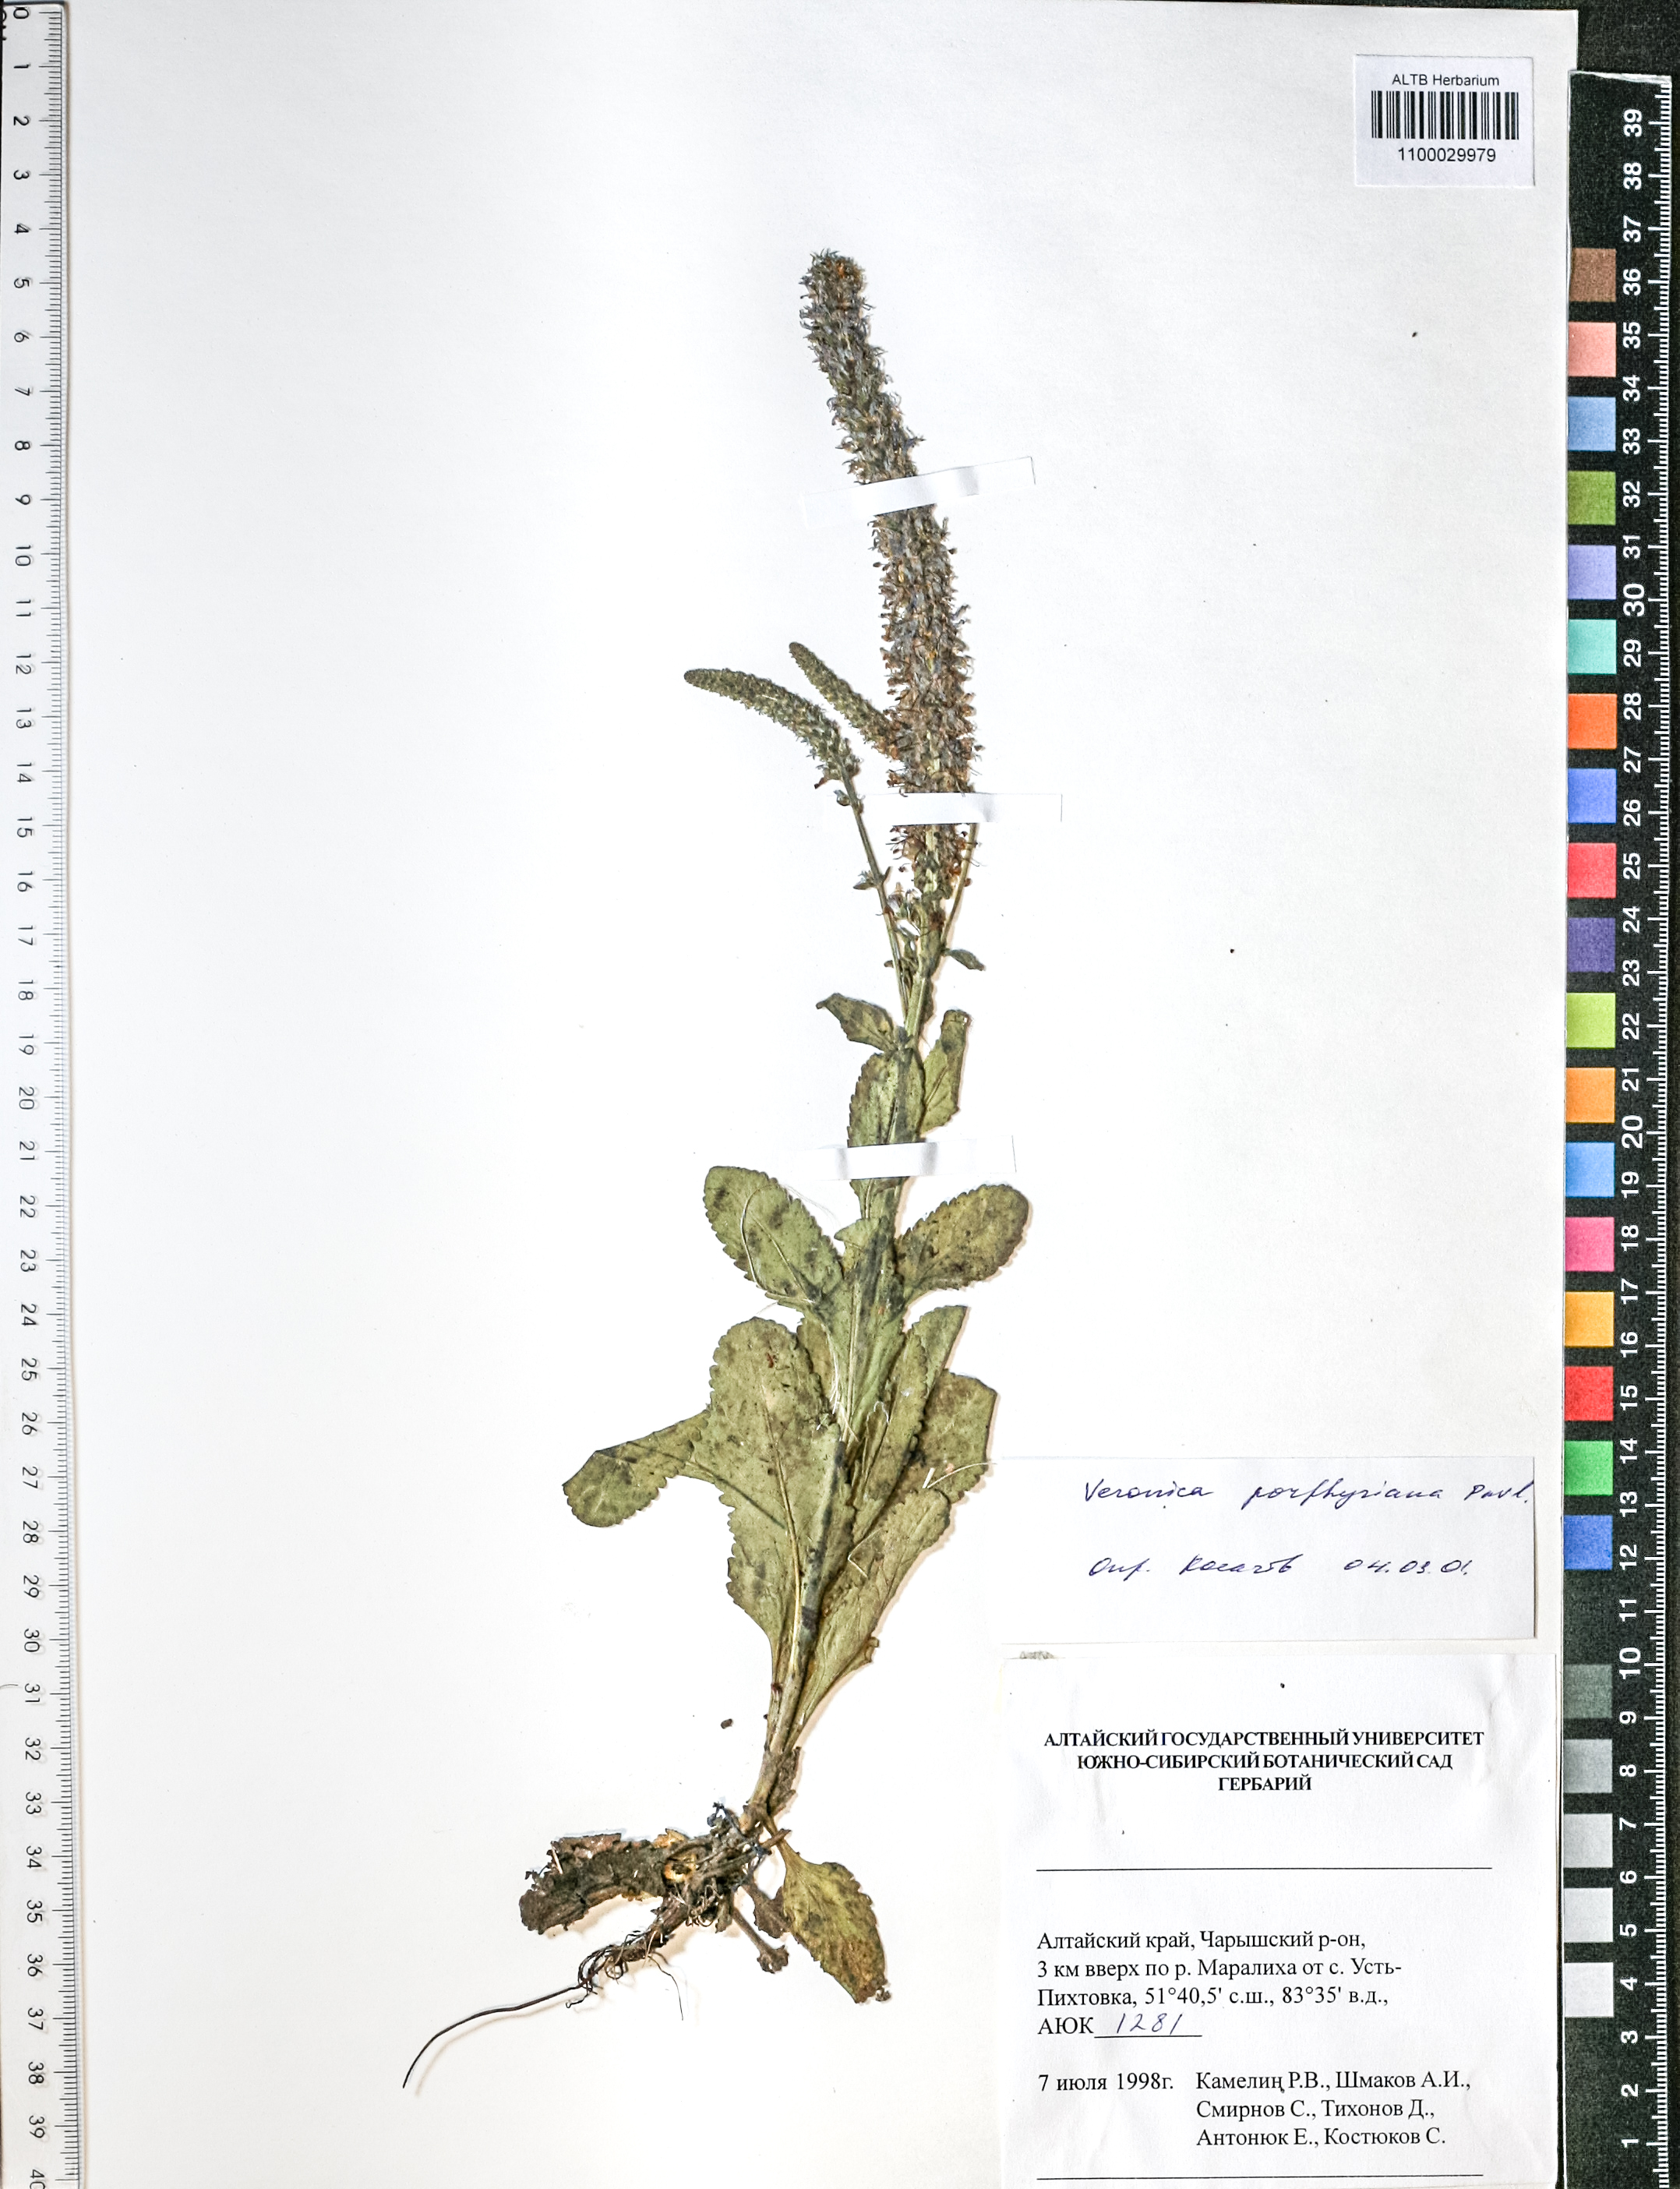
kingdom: Plantae
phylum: Tracheophyta
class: Magnoliopsida
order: Lamiales
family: Plantaginaceae
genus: Veronica
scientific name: Veronica porphyriana
